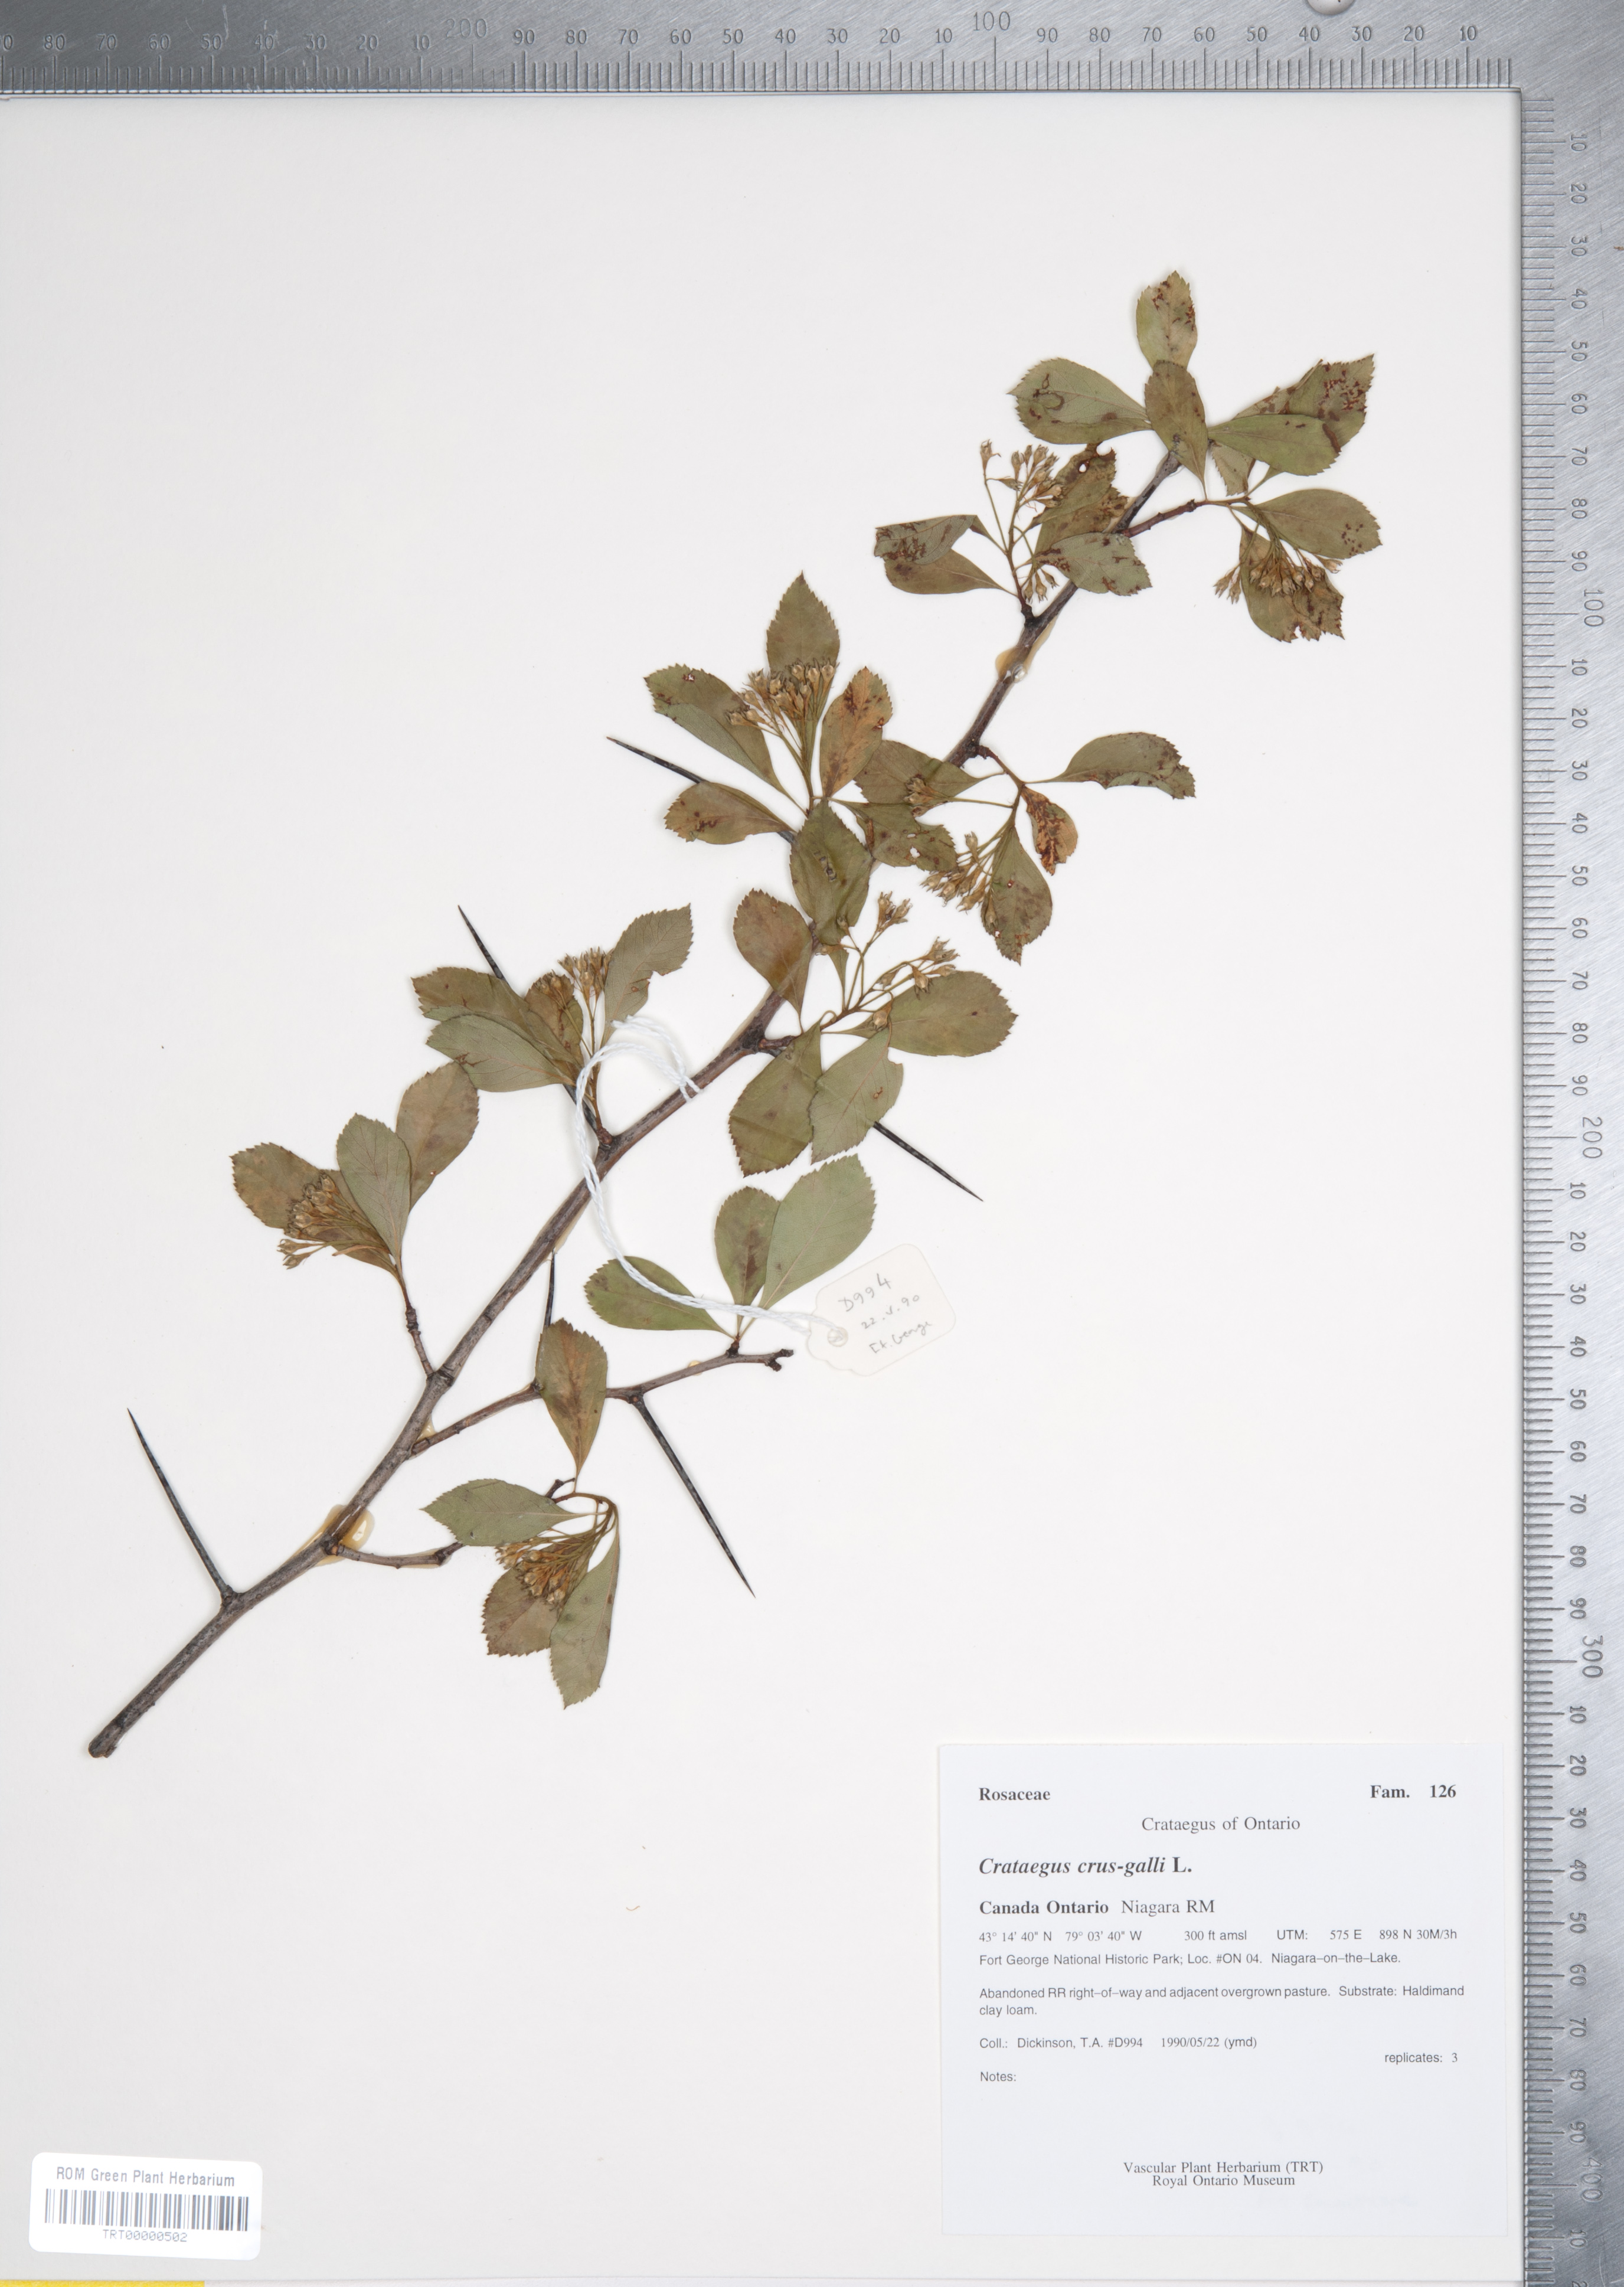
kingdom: Plantae
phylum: Tracheophyta
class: Magnoliopsida
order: Rosales
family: Rosaceae
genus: Crataegus
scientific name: Crataegus crus-galli
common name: Cockspurthorn
